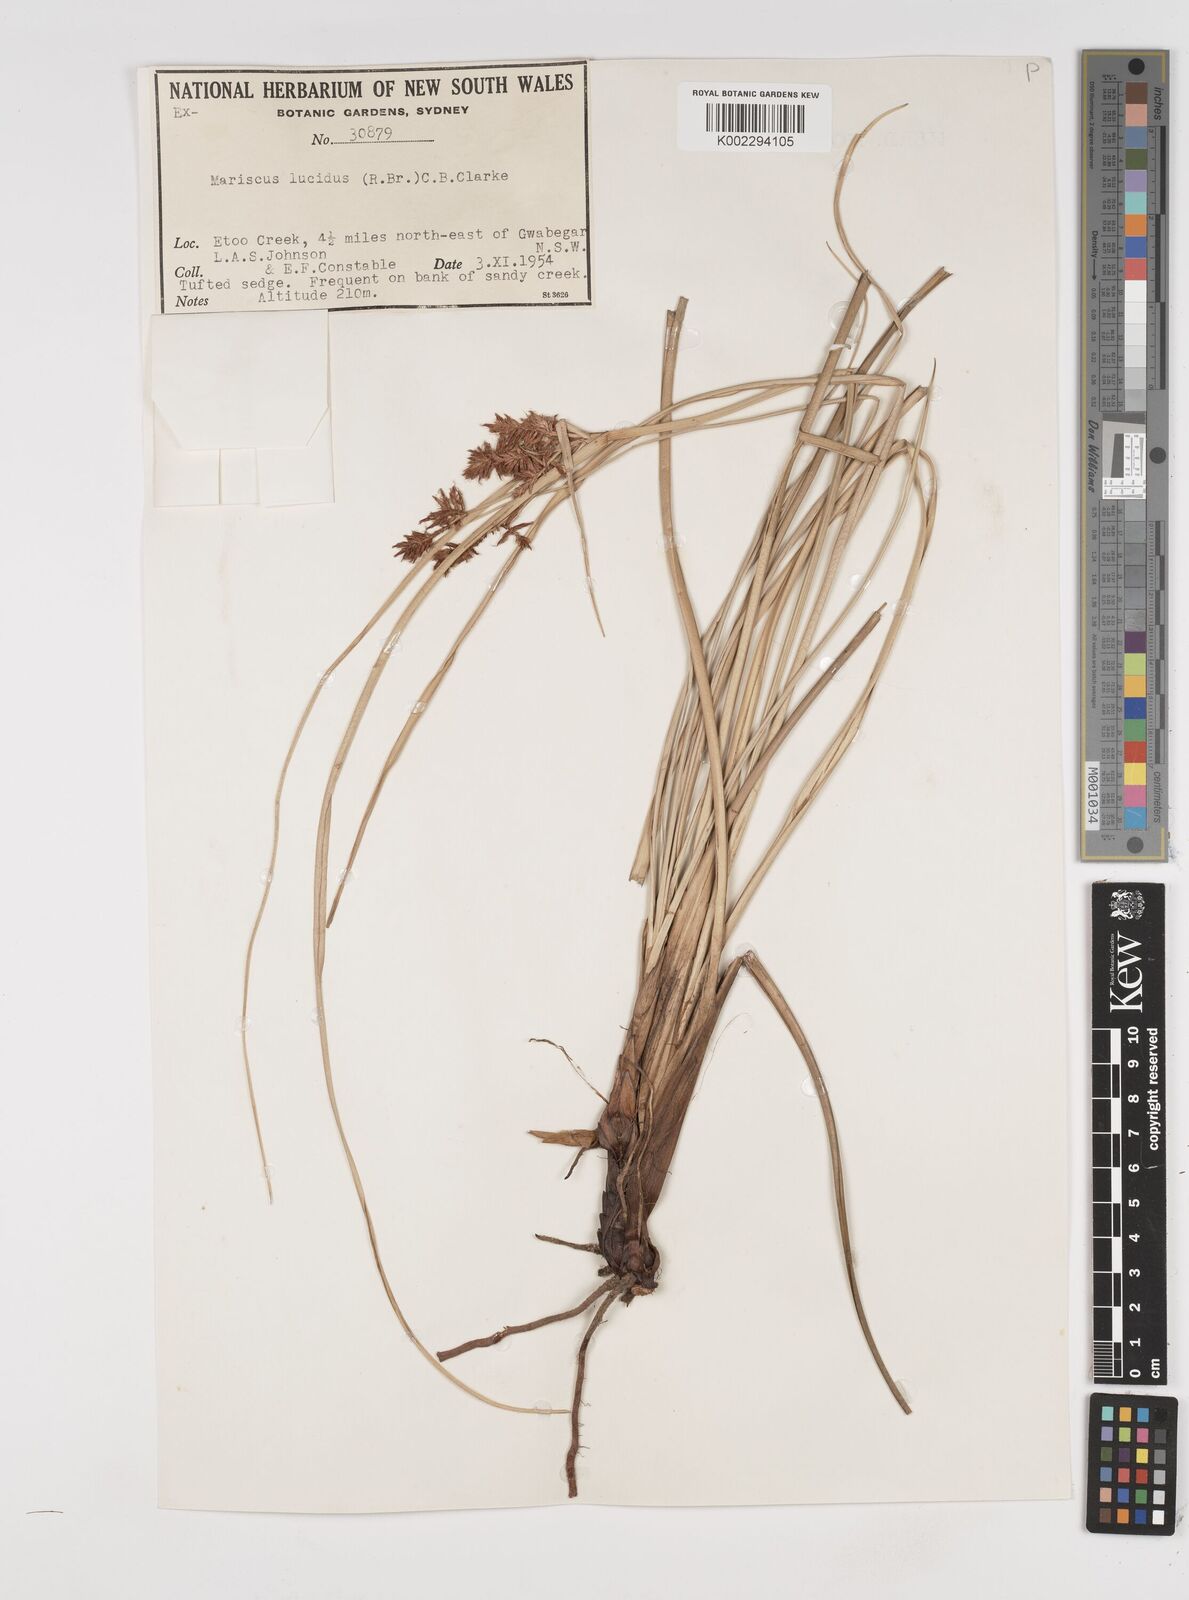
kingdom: Plantae
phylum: Tracheophyta
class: Liliopsida
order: Poales
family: Cyperaceae
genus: Cyperus
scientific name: Cyperus lucidus
